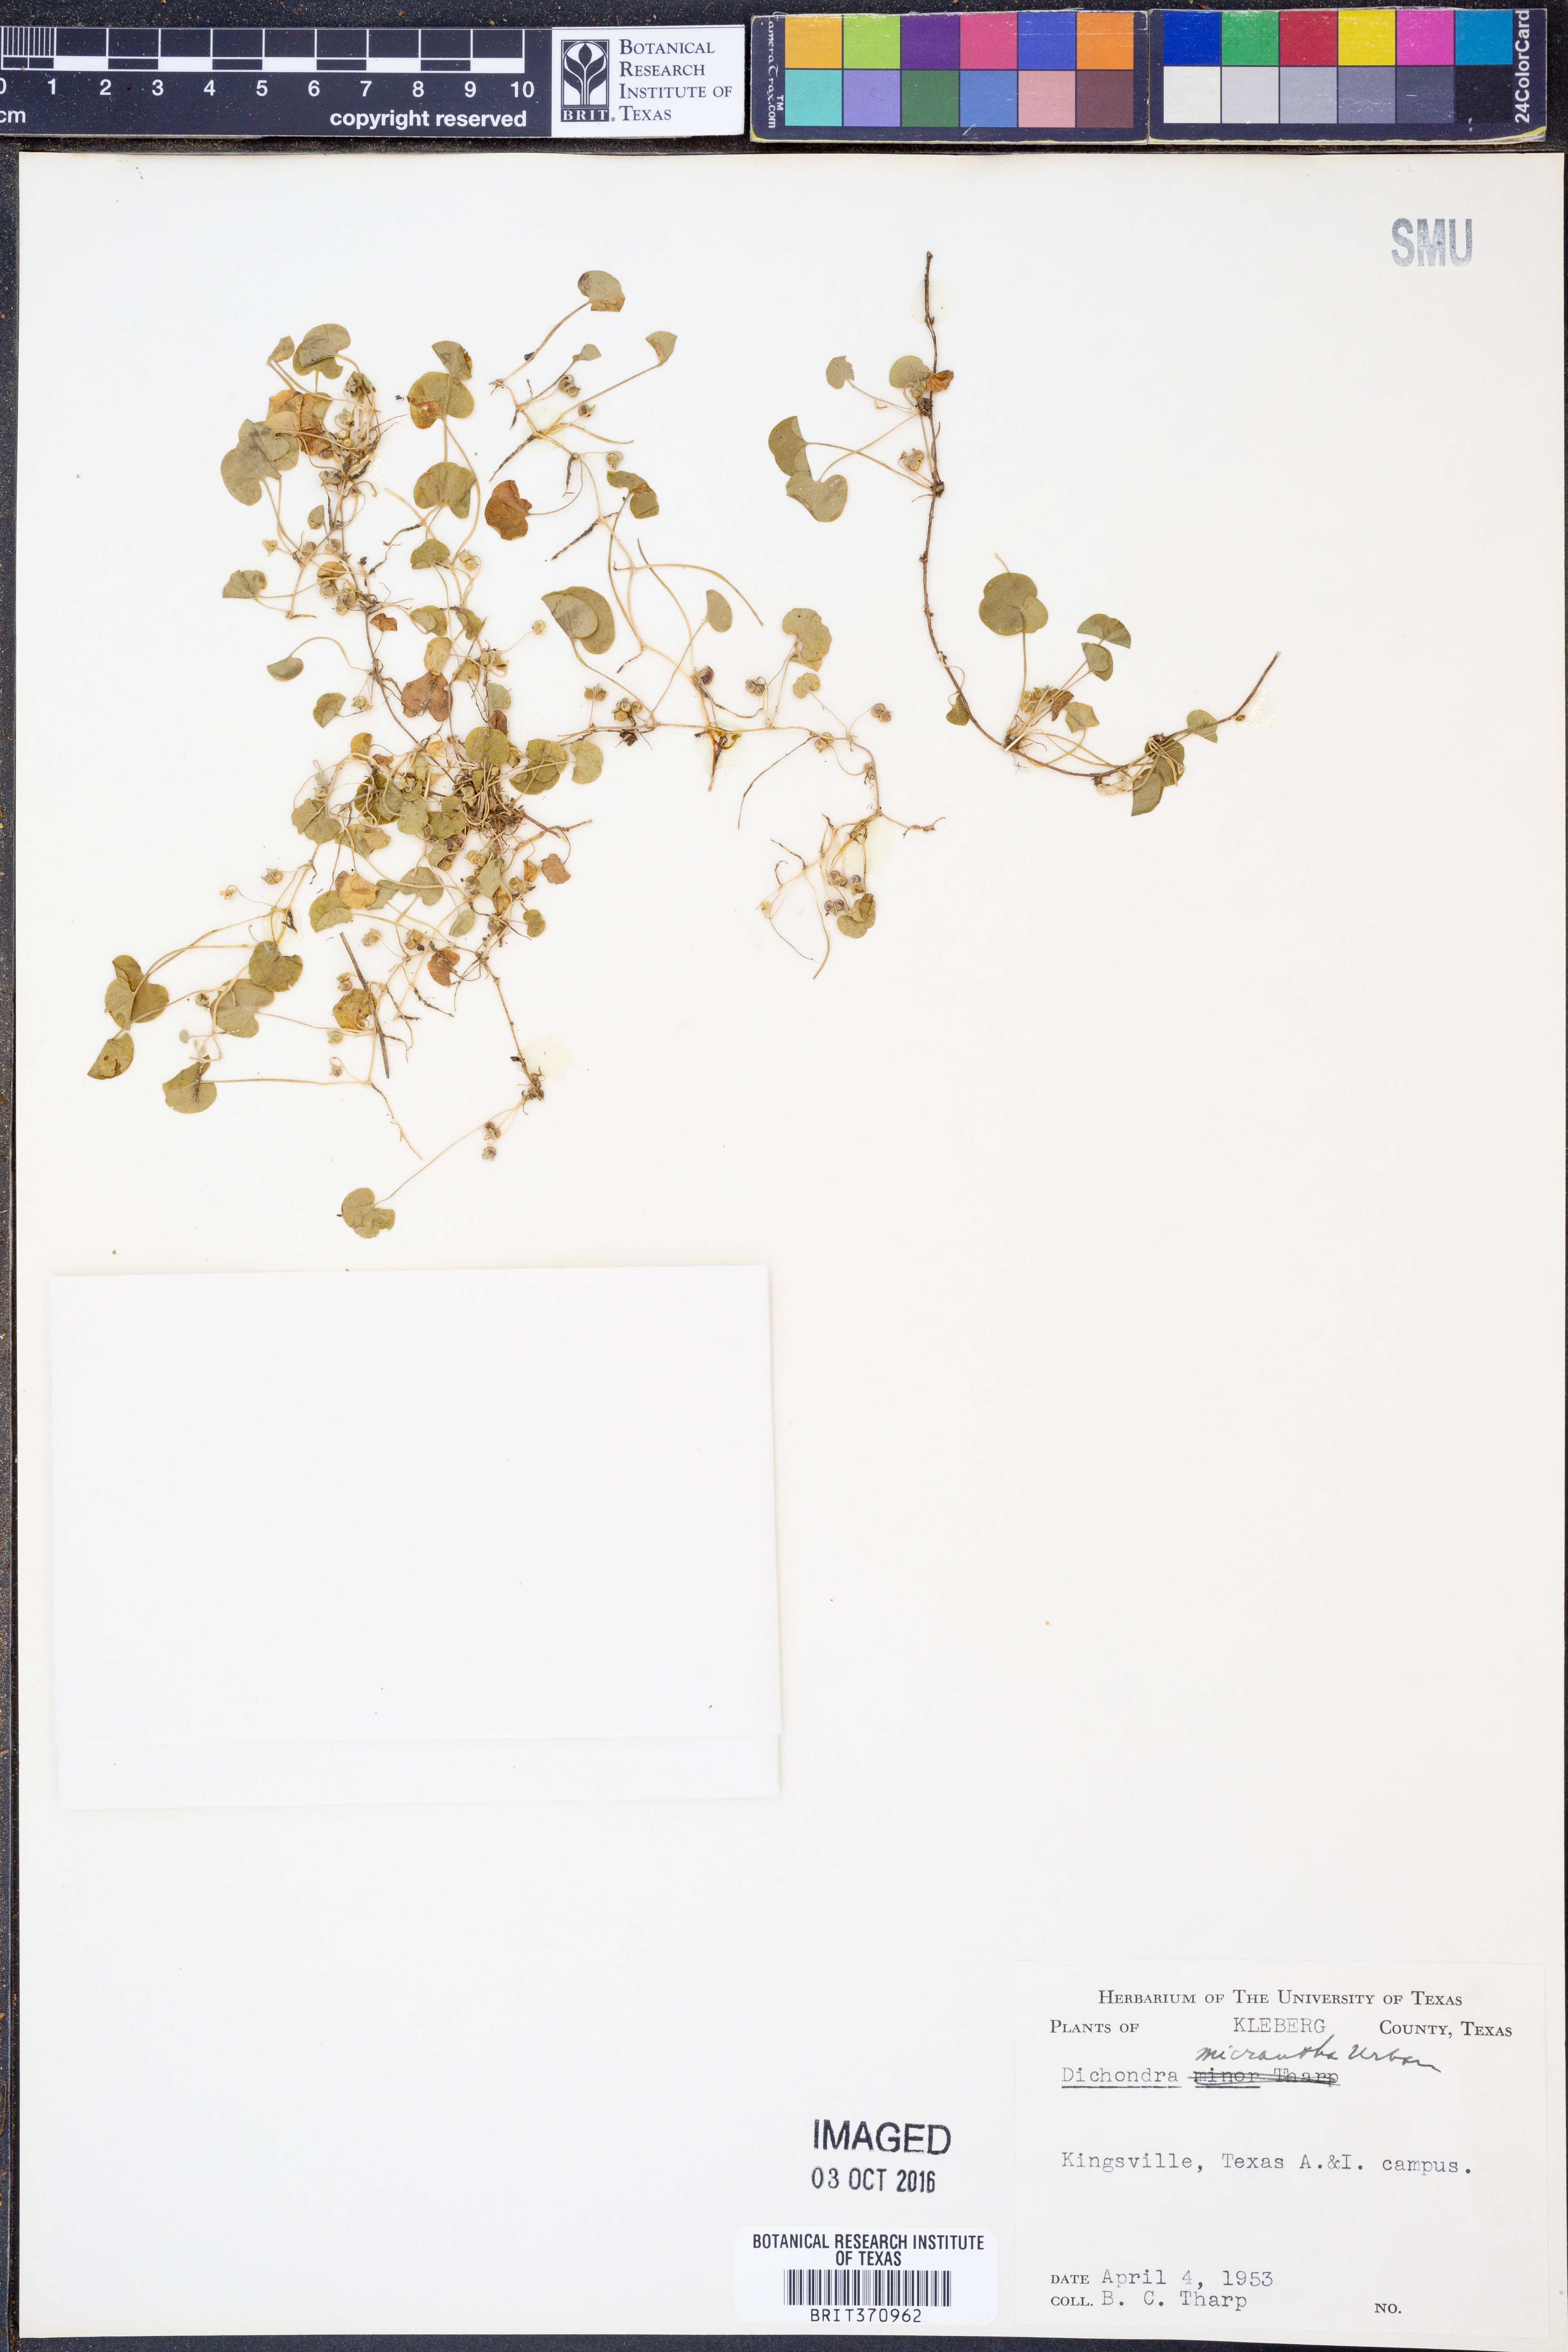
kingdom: Plantae
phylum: Tracheophyta
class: Magnoliopsida
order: Solanales
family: Convolvulaceae
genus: Dichondra
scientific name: Dichondra micrantha
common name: Kidneyweed
